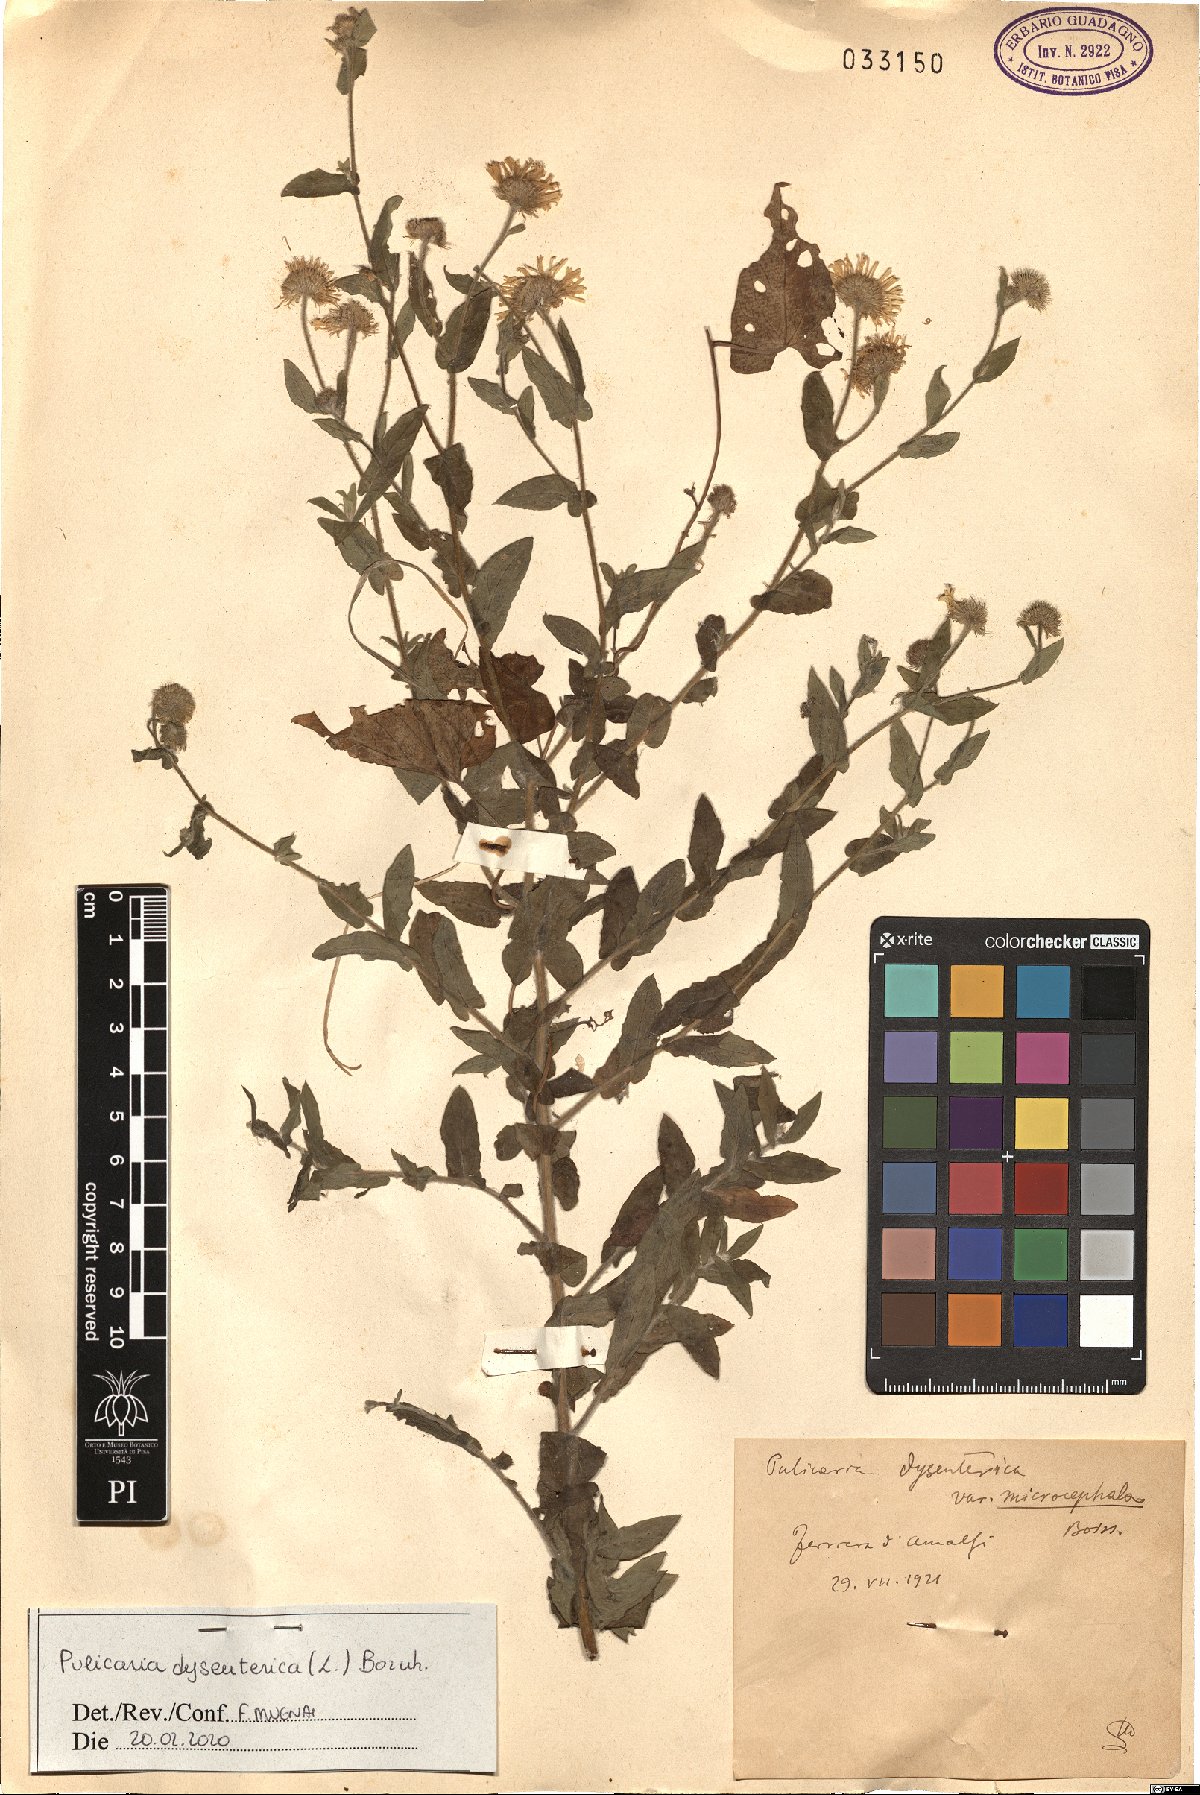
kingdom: Plantae
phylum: Tracheophyta
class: Magnoliopsida
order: Asterales
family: Asteraceae
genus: Pulicaria
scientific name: Pulicaria dysenterica
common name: Common fleabane
